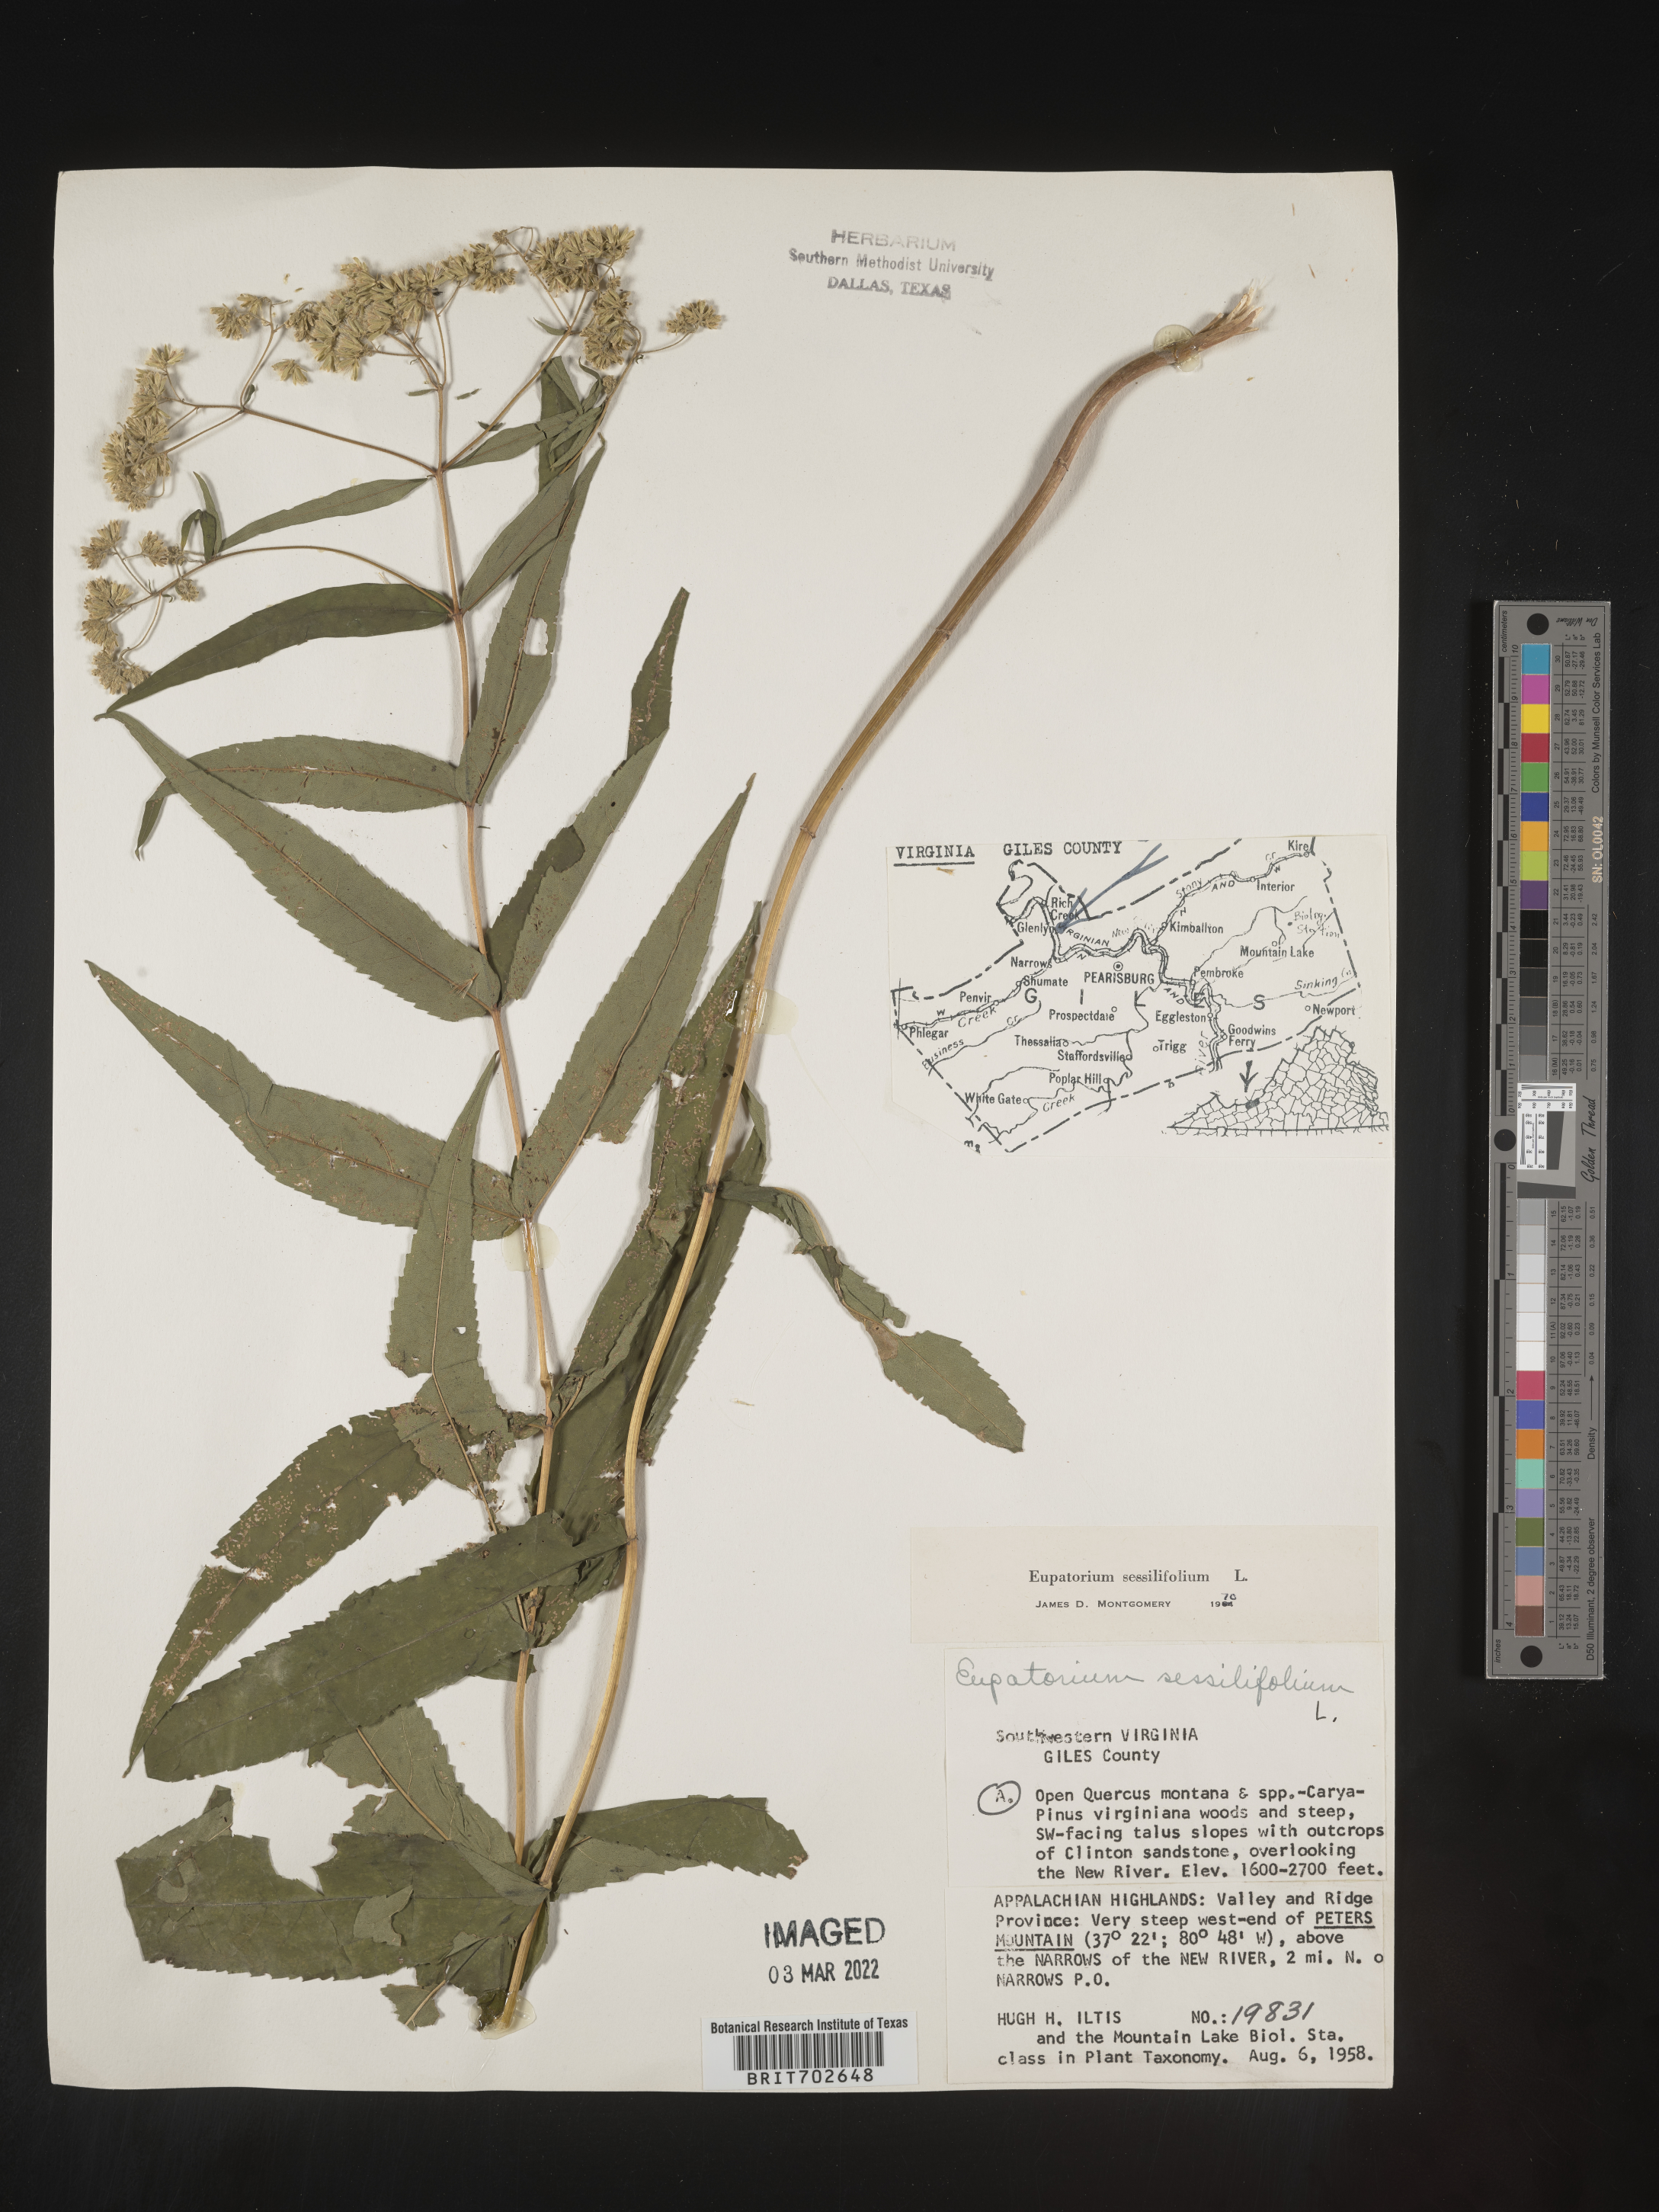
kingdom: Plantae
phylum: Tracheophyta
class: Magnoliopsida
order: Asterales
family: Asteraceae
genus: Eupatorium
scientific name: Eupatorium sessilifolium
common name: Upland boneset
